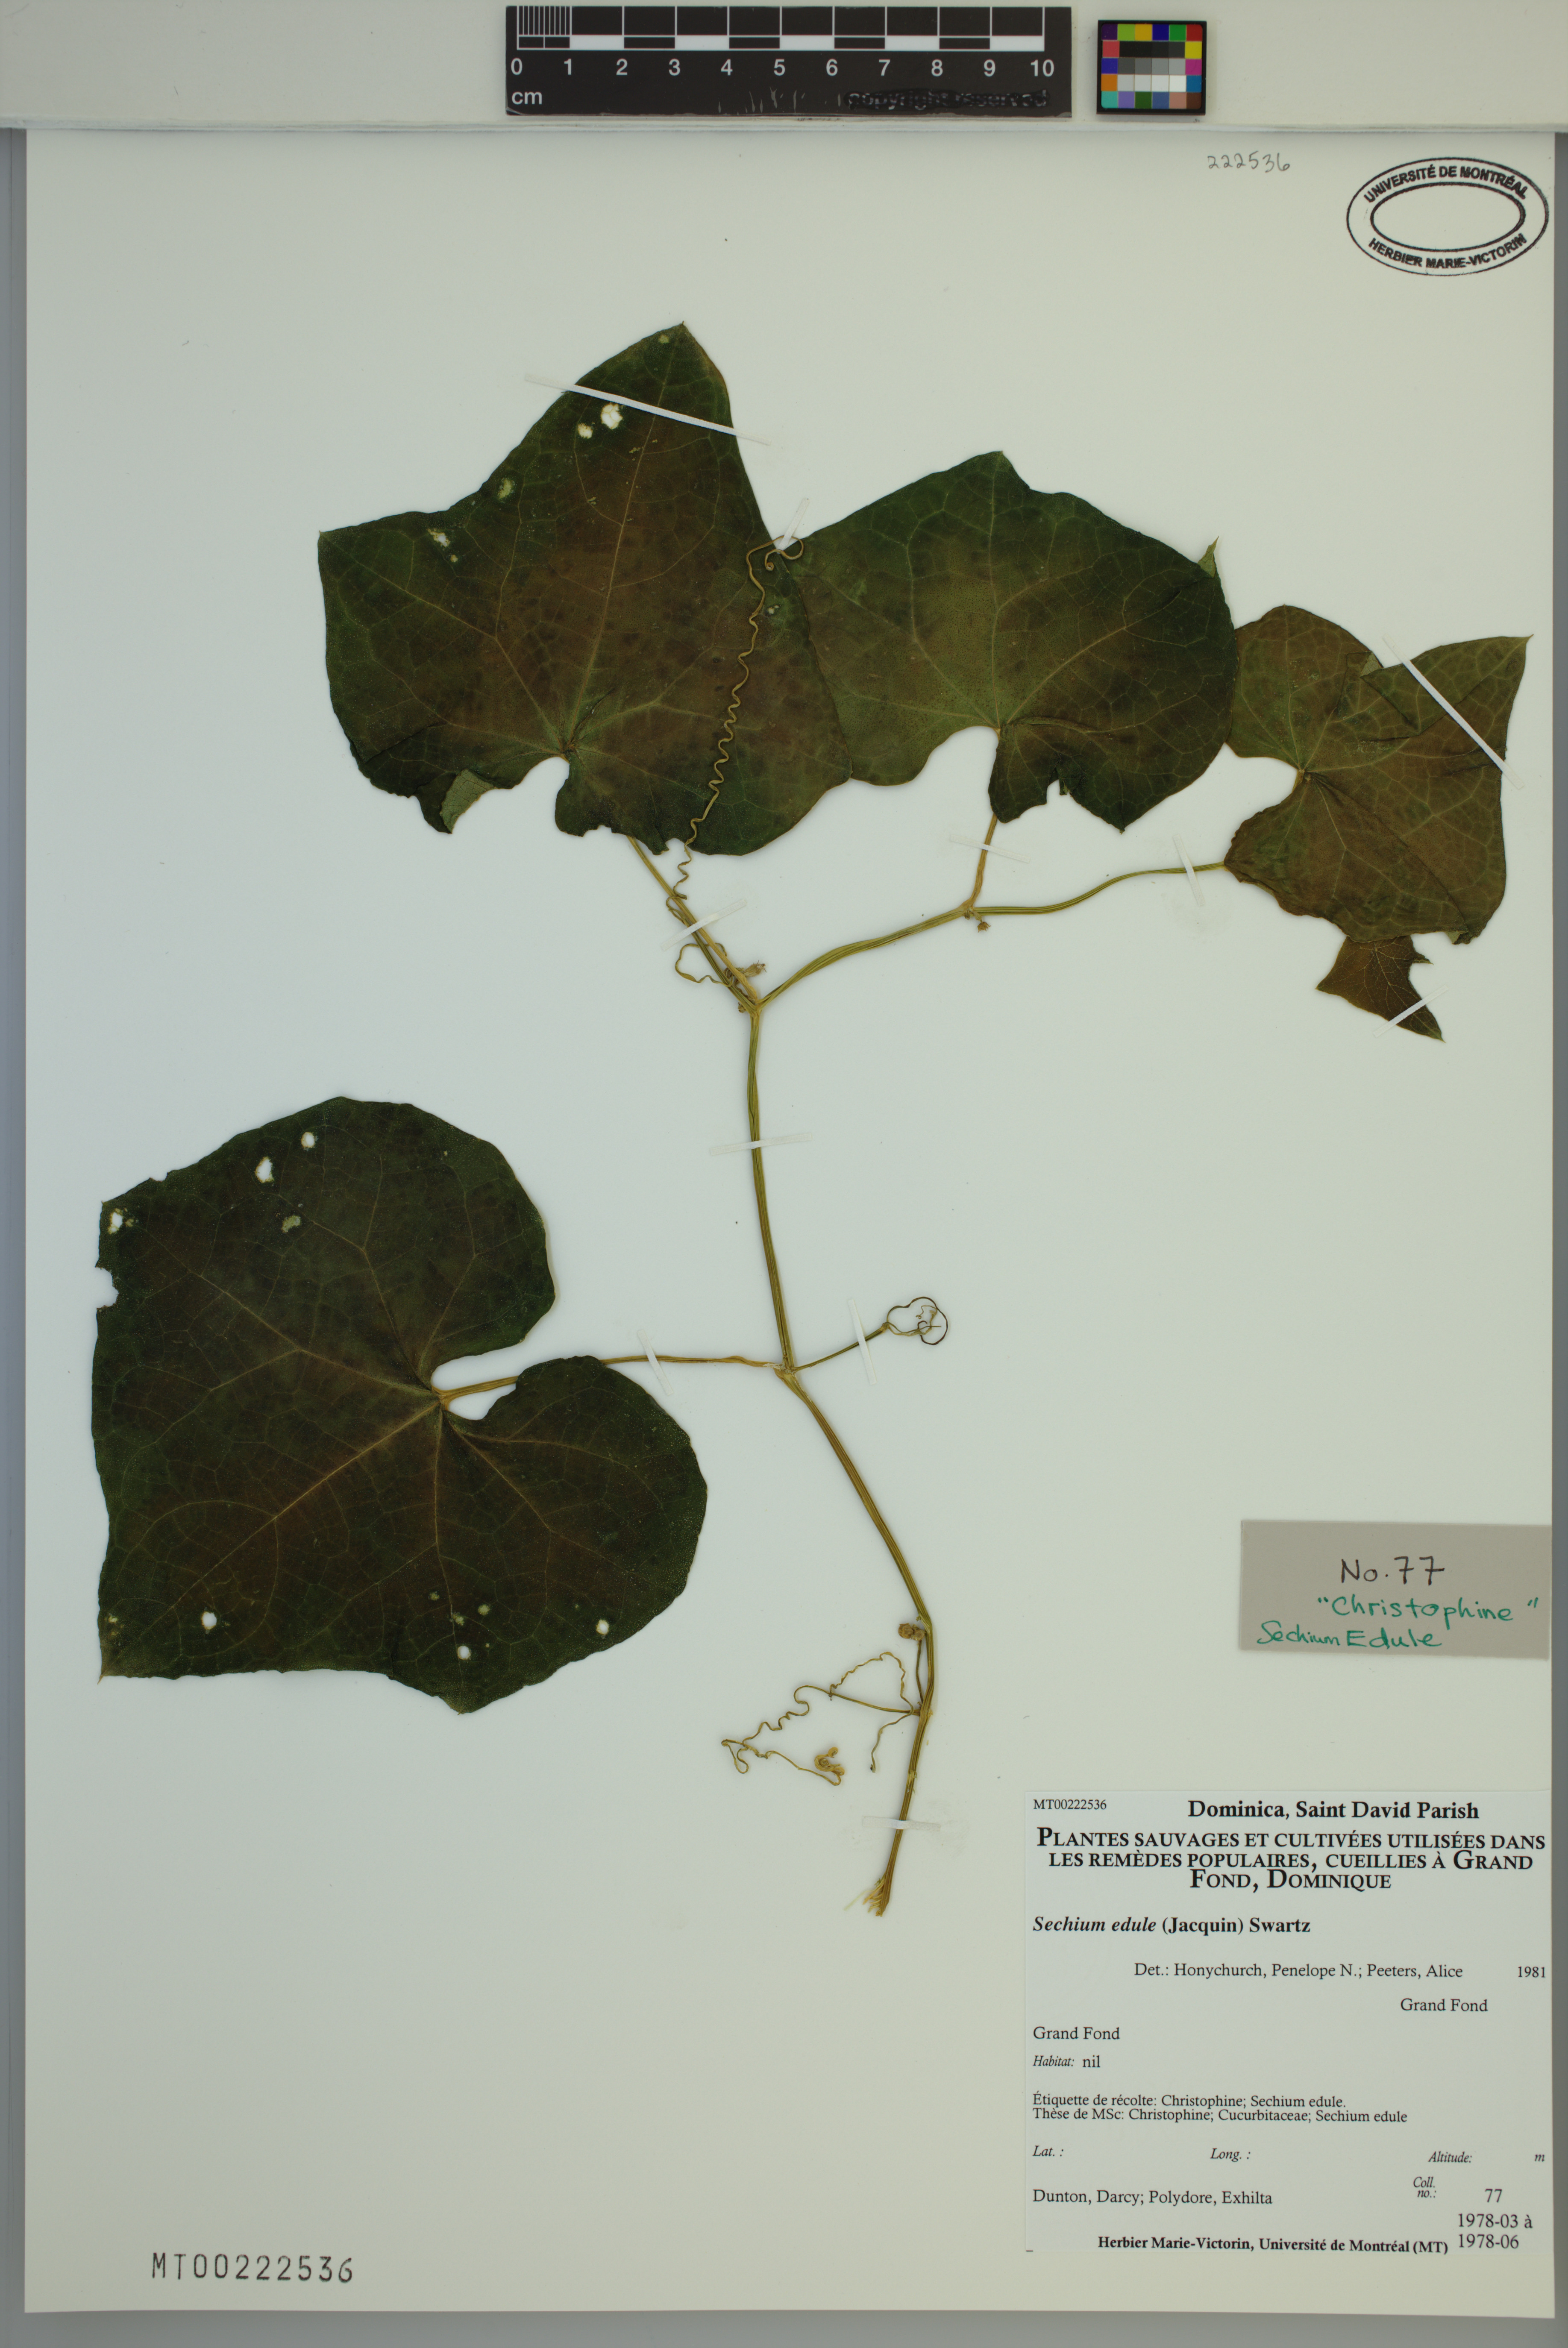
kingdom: Plantae
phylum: Tracheophyta
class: Magnoliopsida
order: Cucurbitales
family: Cucurbitaceae
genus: Sechium
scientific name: Sechium edule
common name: Chayote
